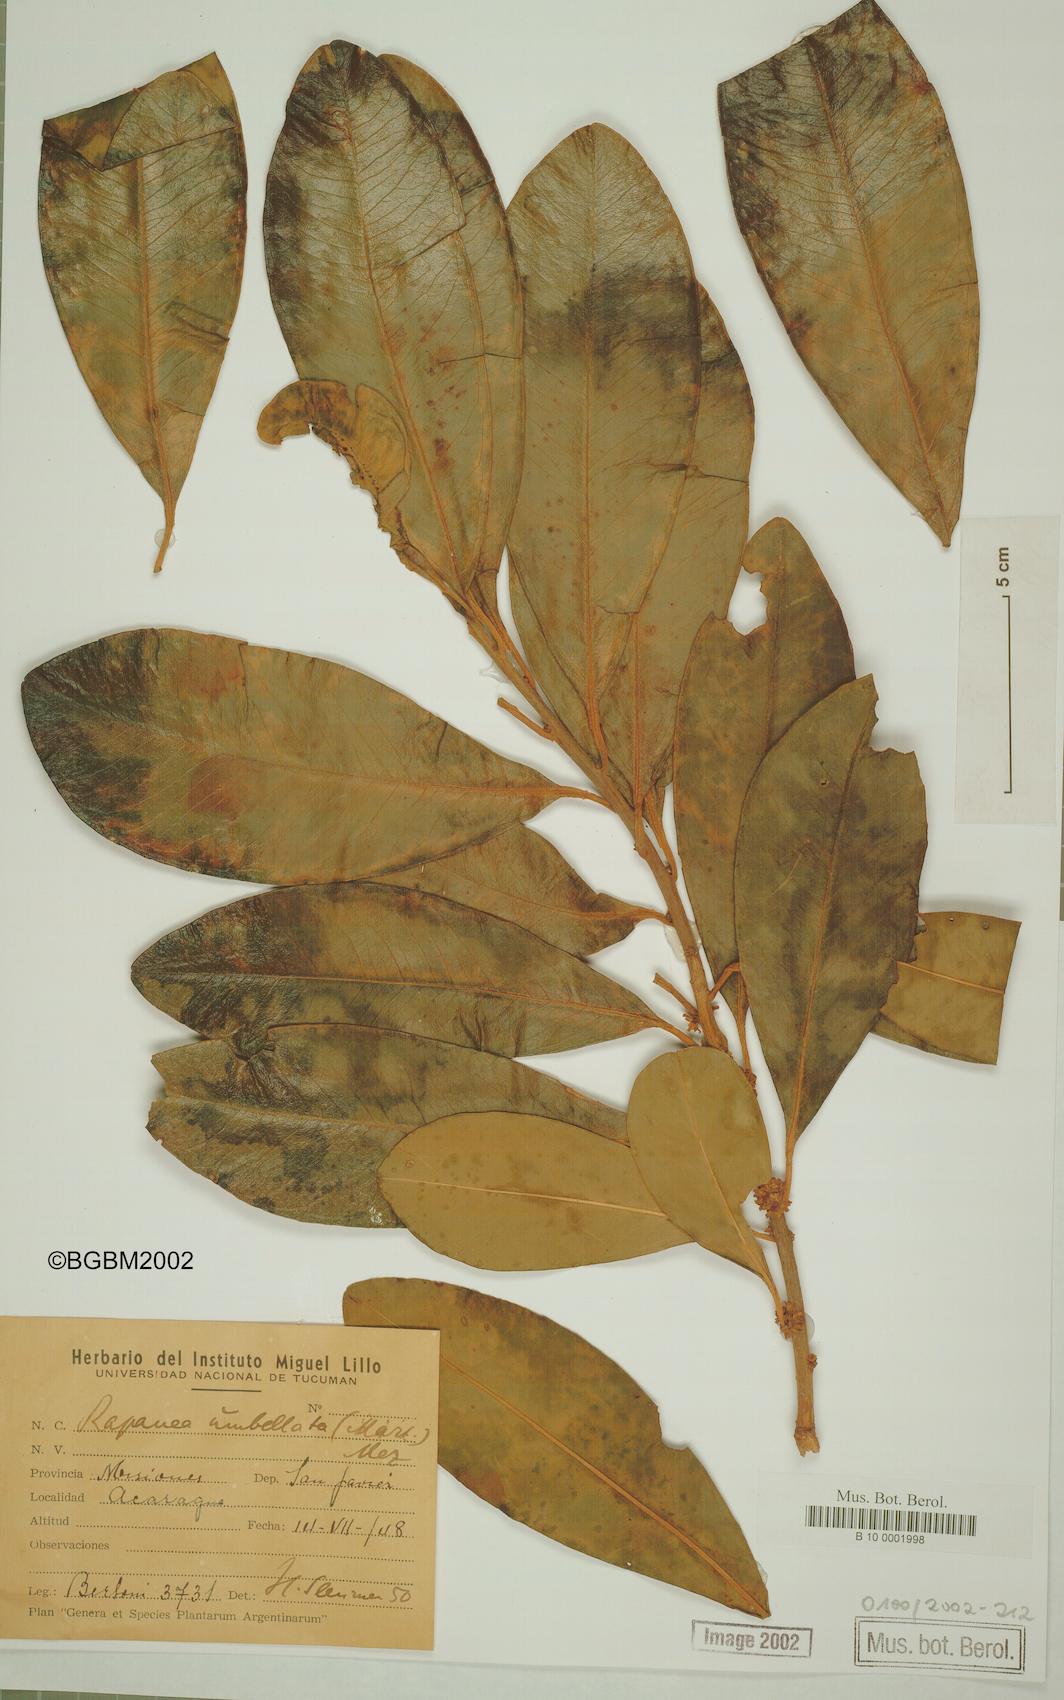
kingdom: Plantae
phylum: Tracheophyta
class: Magnoliopsida
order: Ericales
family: Primulaceae
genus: Myrsine
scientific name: Myrsine umbellata
